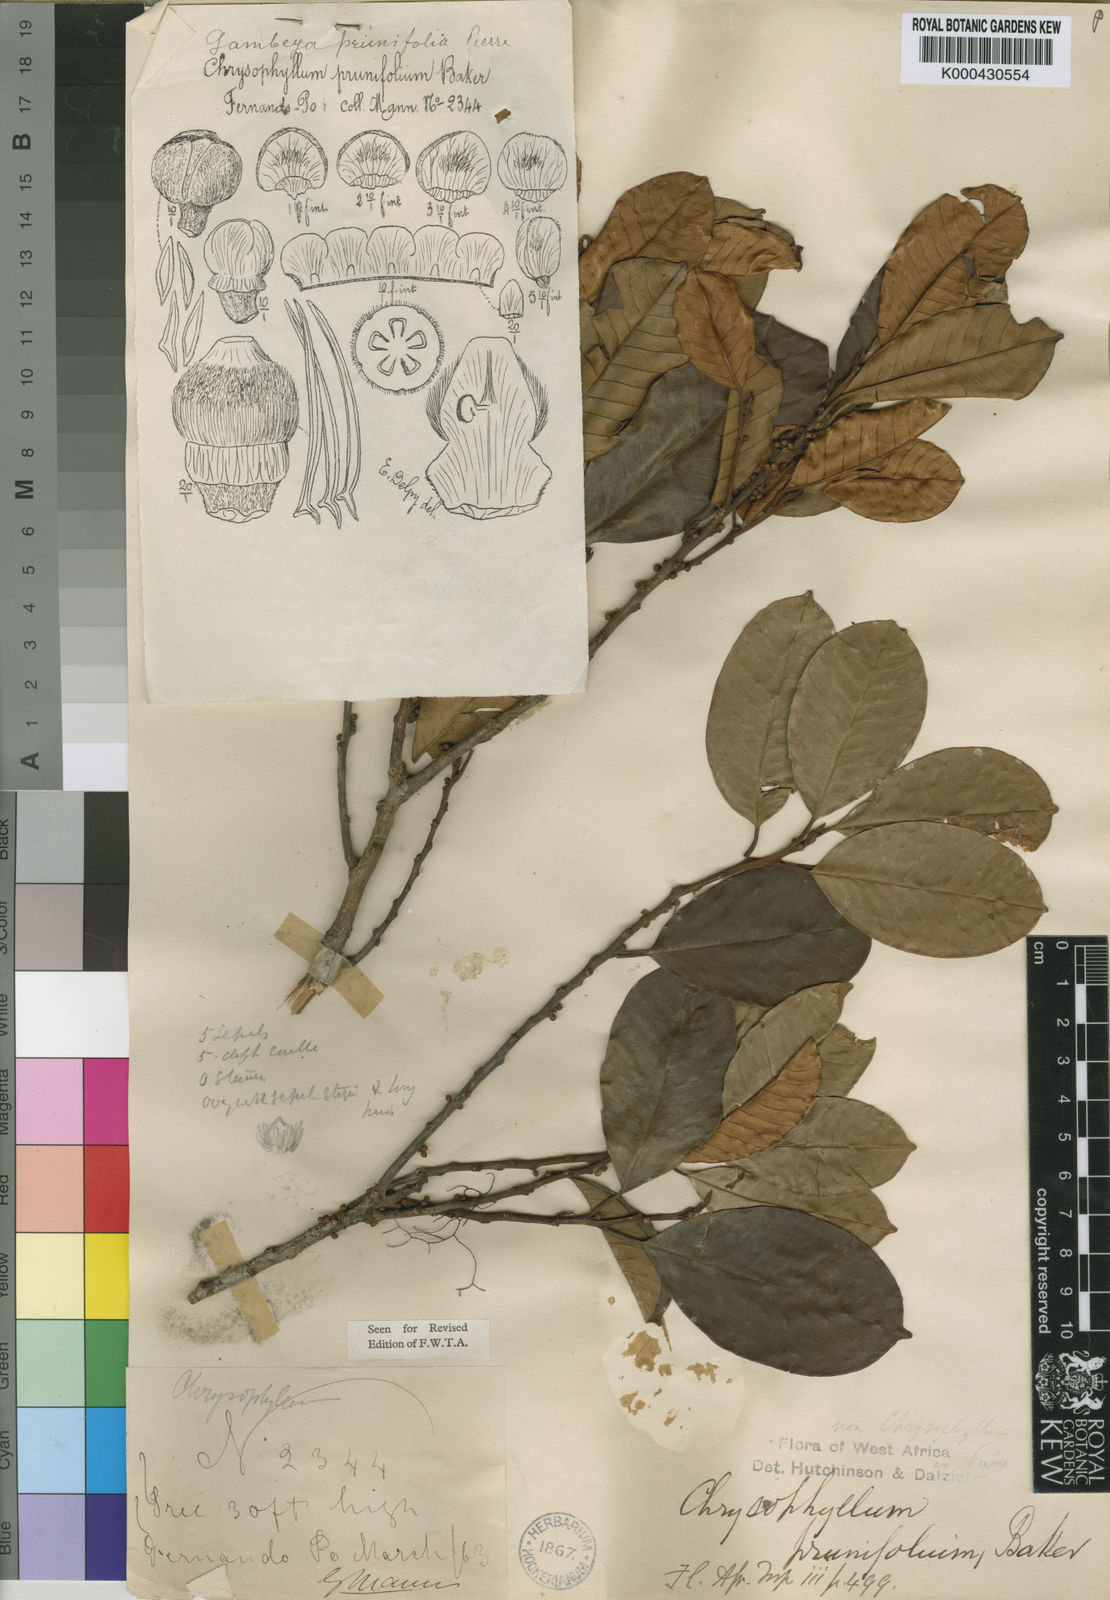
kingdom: Plantae
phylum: Tracheophyta
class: Magnoliopsida
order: Ericales
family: Sapotaceae
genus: Gambeya
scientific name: Gambeya prunifolia
